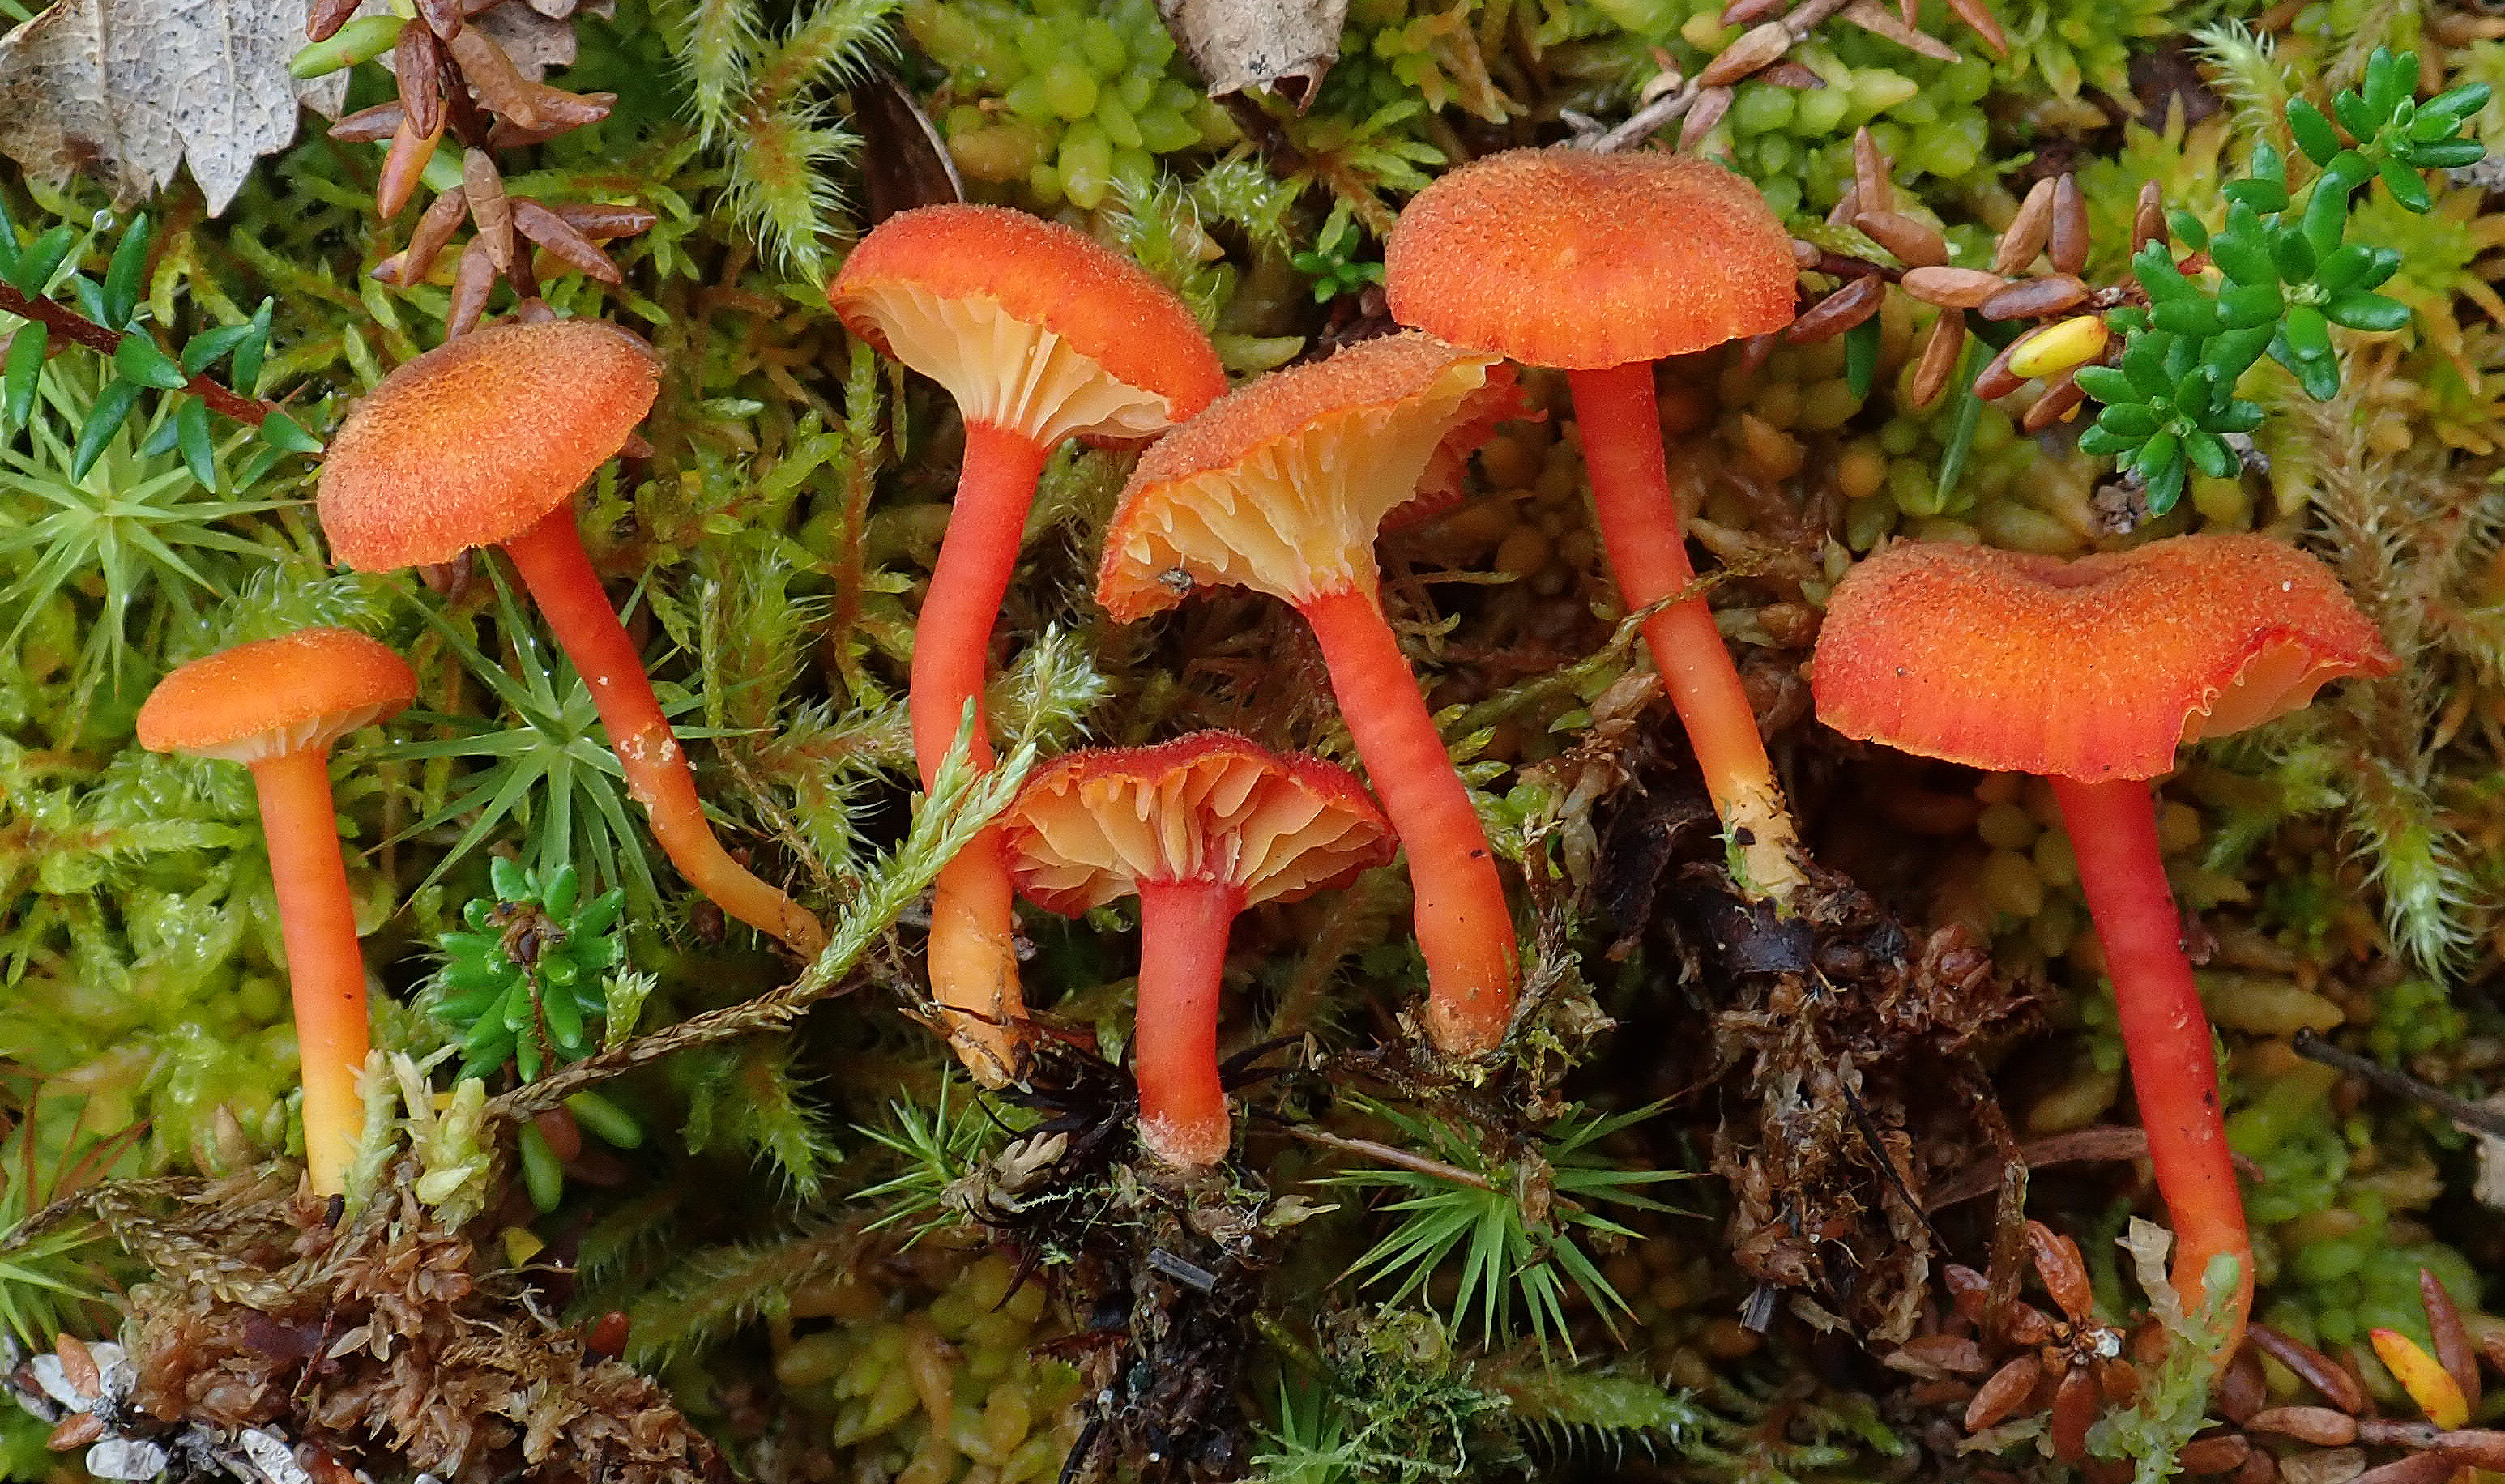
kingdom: Fungi
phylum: Basidiomycota
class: Agaricomycetes
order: Agaricales
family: Hygrophoraceae
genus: Hygrocybe
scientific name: Hygrocybe cantharellus
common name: Goblet waxcap
